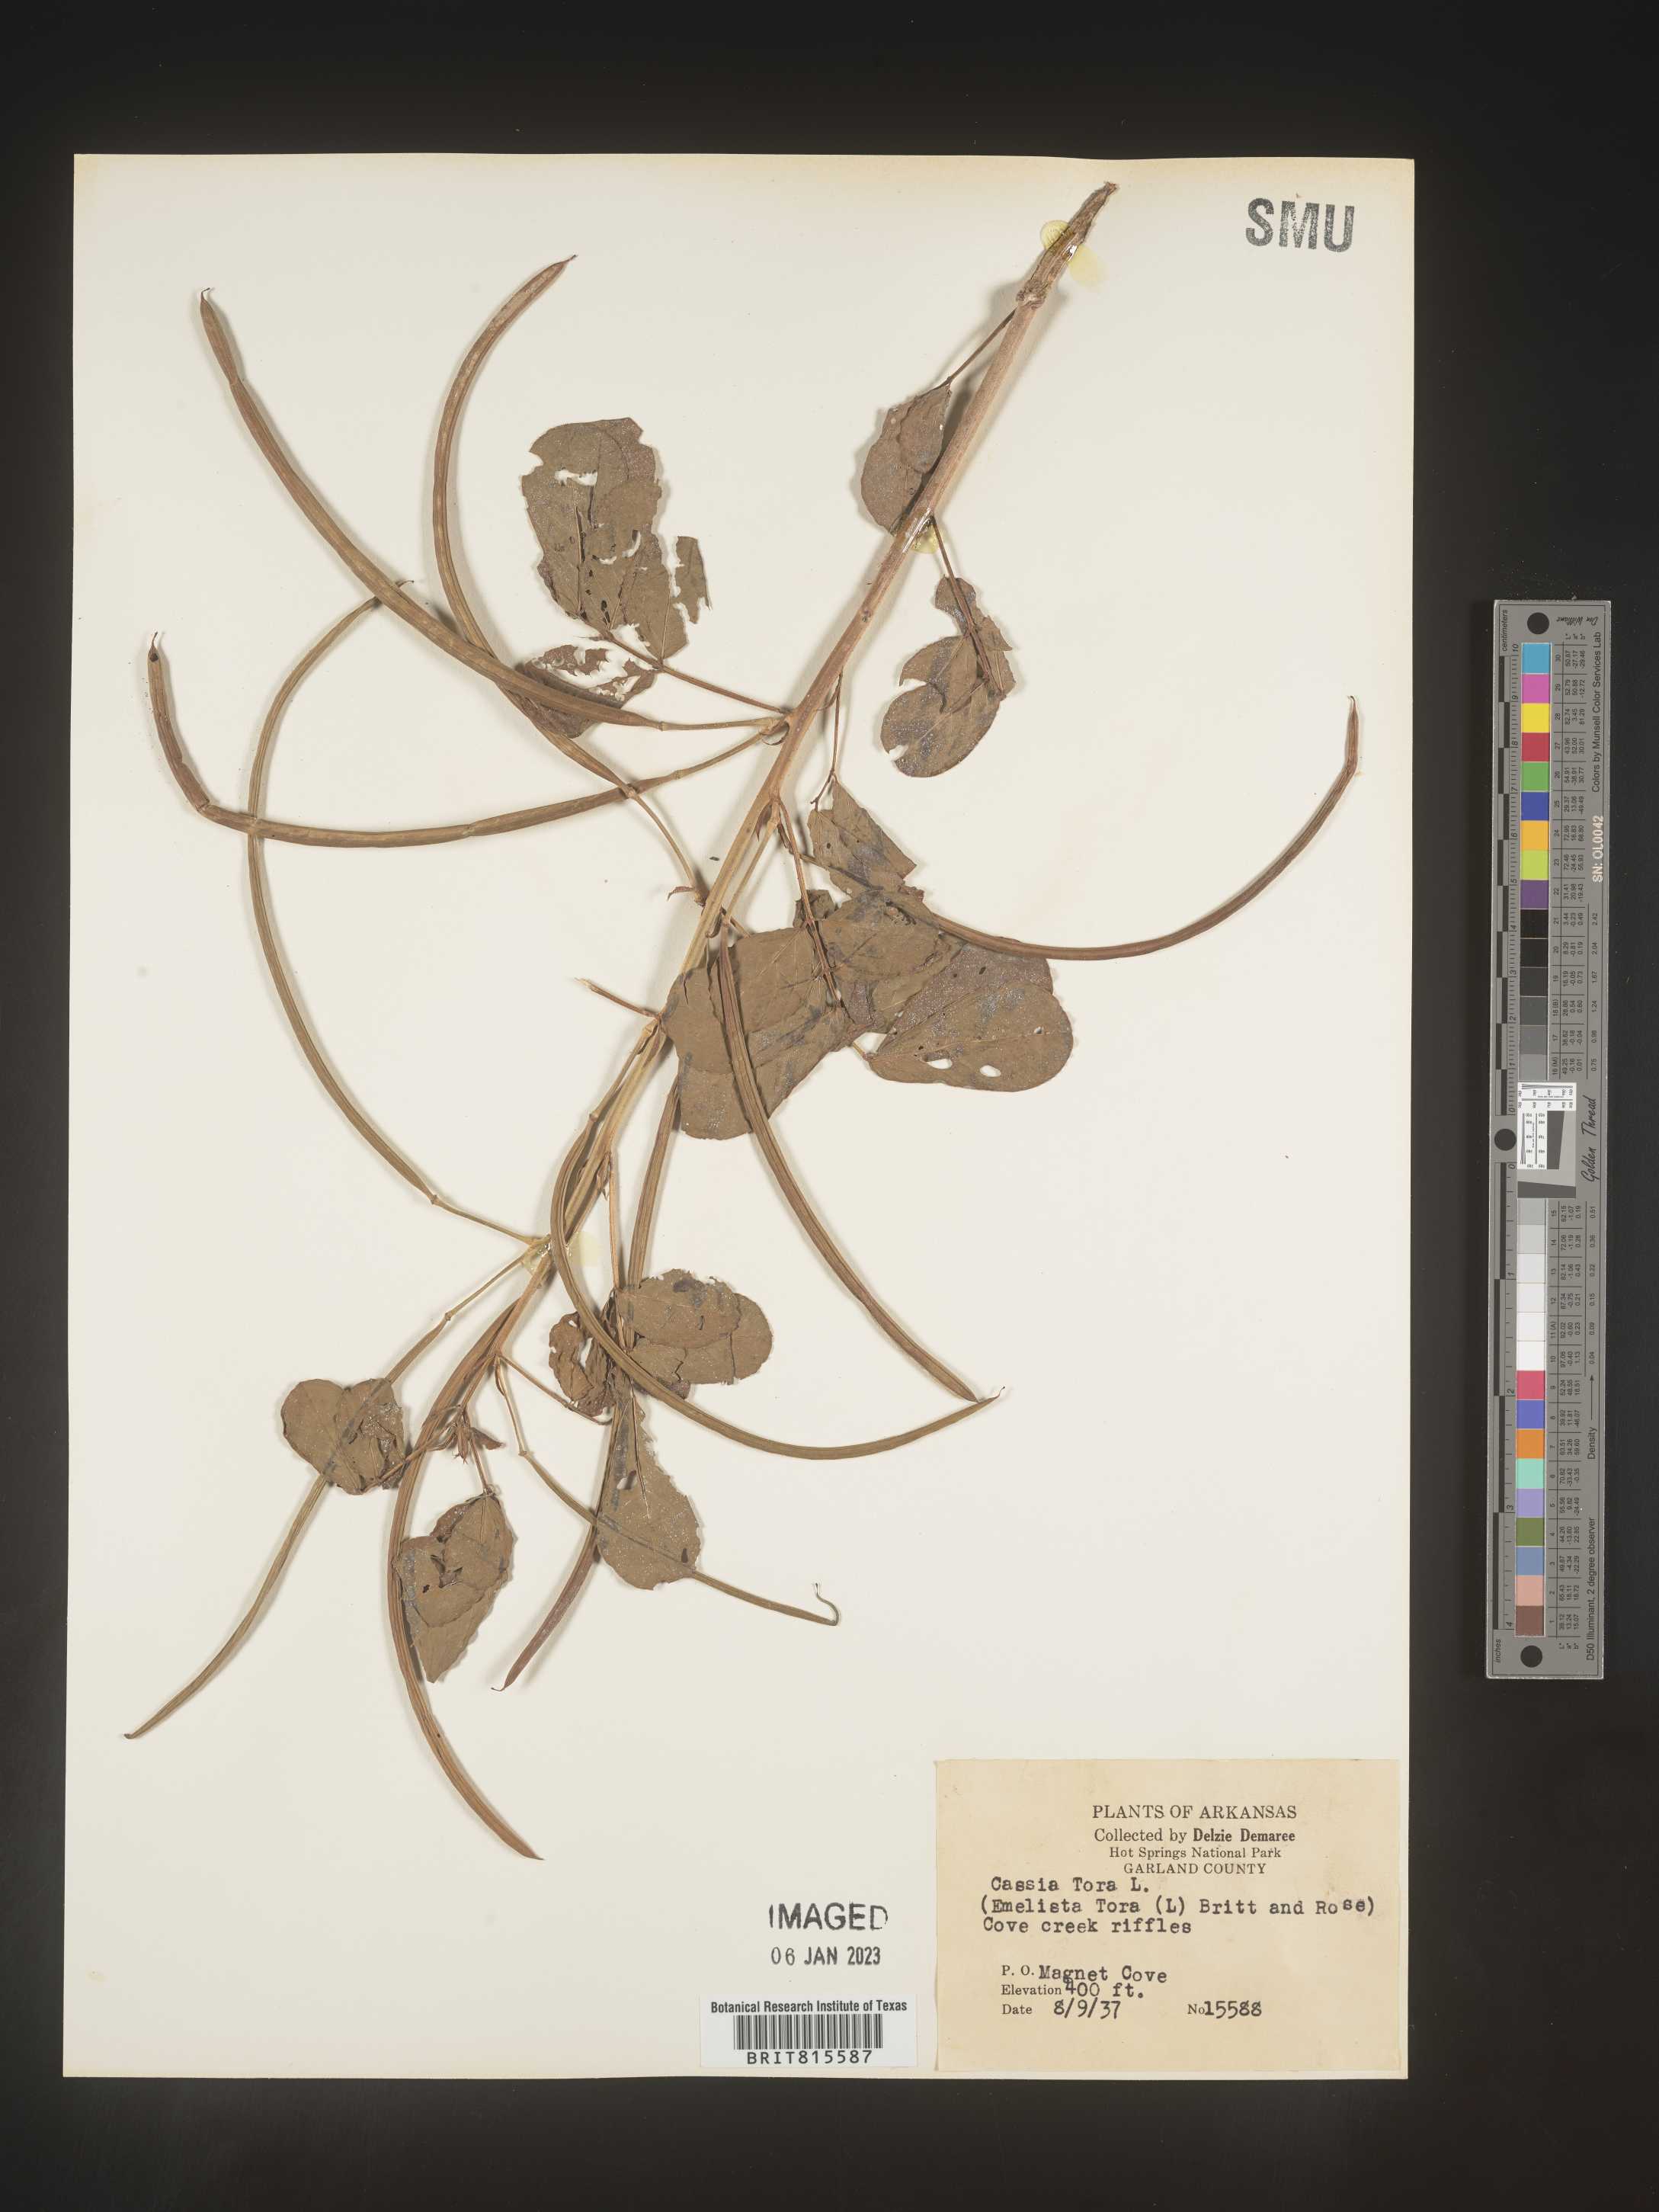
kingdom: Plantae
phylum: Tracheophyta
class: Magnoliopsida
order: Fabales
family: Fabaceae
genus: Senna
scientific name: Senna tora
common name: Sickle senna
